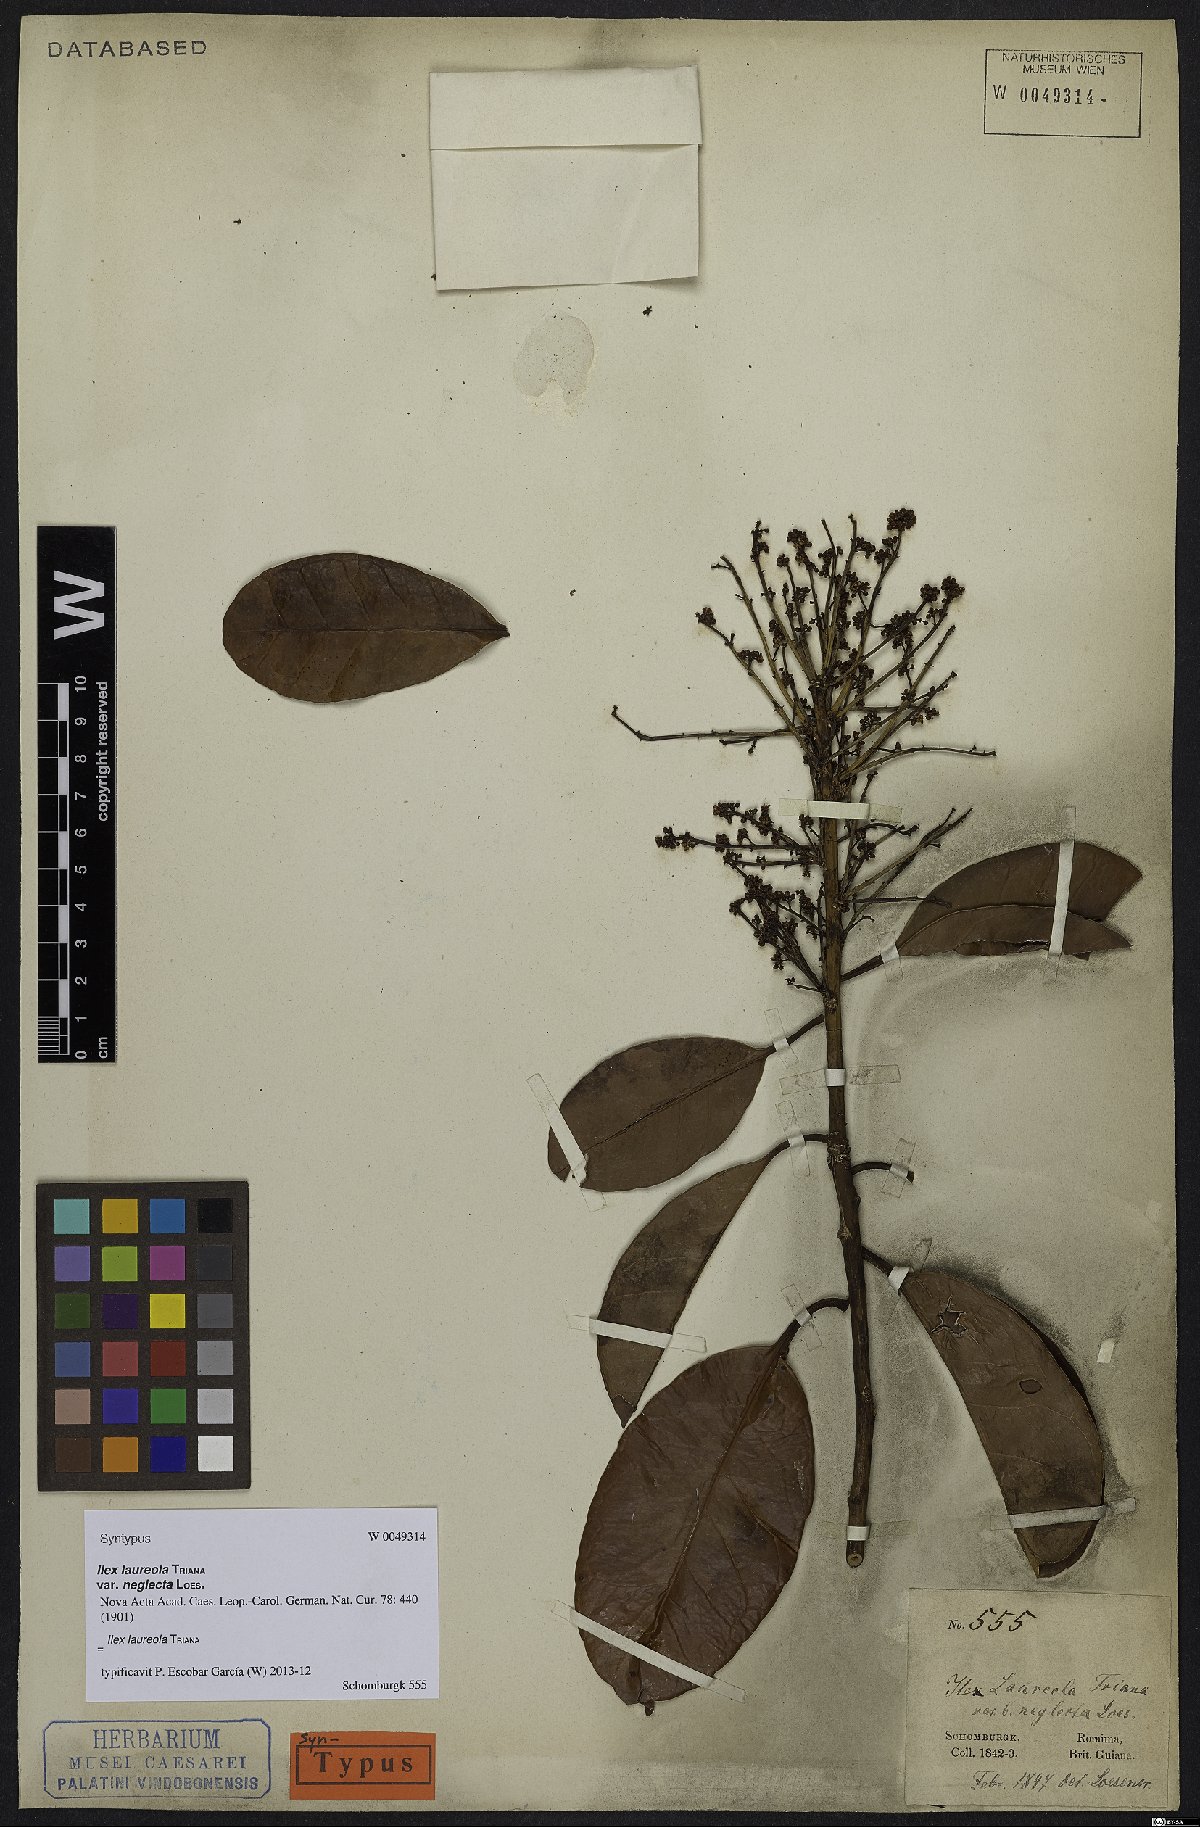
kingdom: Plantae
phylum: Tracheophyta
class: Magnoliopsida
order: Aquifoliales
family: Aquifoliaceae
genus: Ilex
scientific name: Ilex laureola
